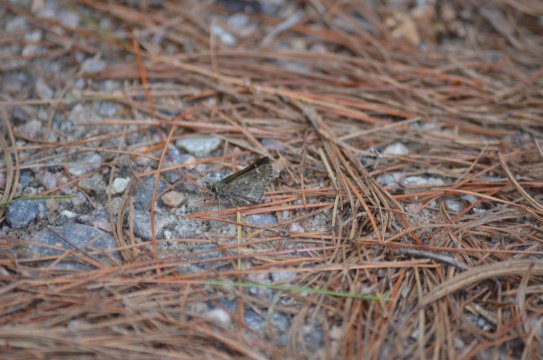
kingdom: Animalia
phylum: Arthropoda
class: Insecta
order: Lepidoptera
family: Hesperiidae
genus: Mastor
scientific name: Mastor hegon
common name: Pepper and Salt Skipper
